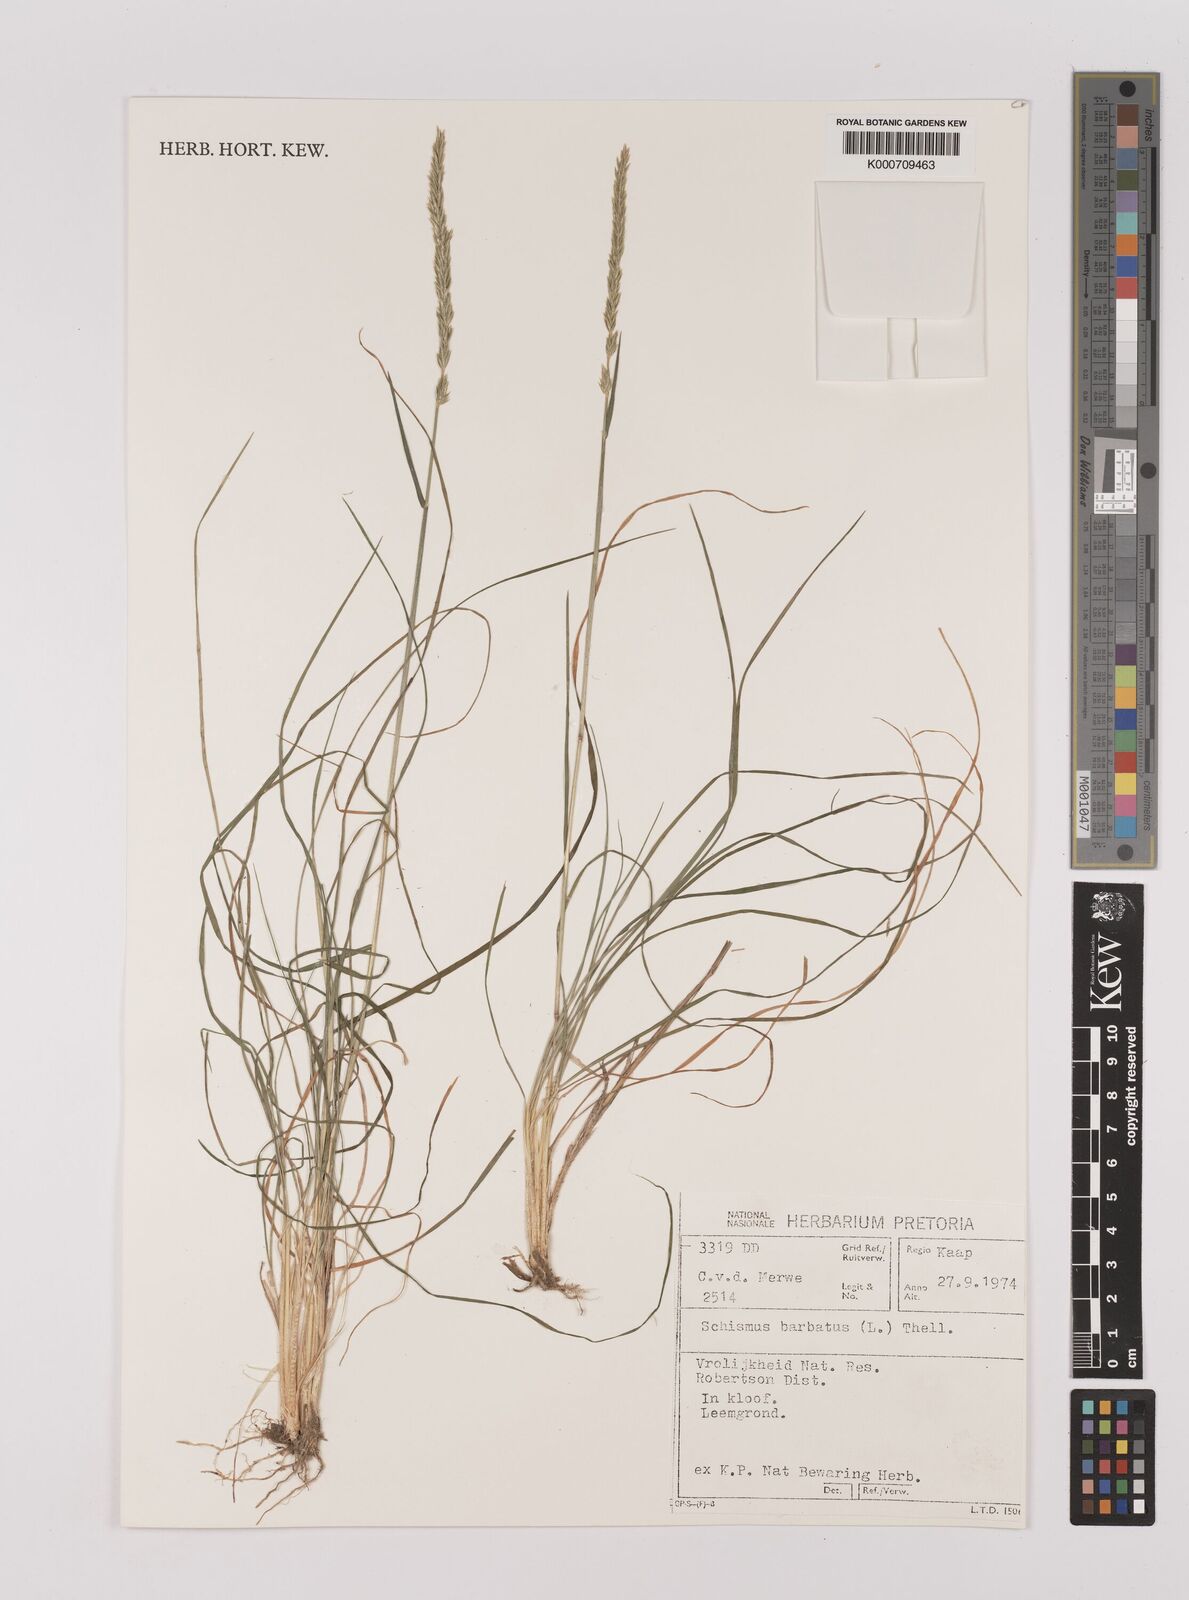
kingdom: Plantae
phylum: Tracheophyta
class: Liliopsida
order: Poales
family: Poaceae
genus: Schismus
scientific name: Schismus barbatus
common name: Kelch-grass
